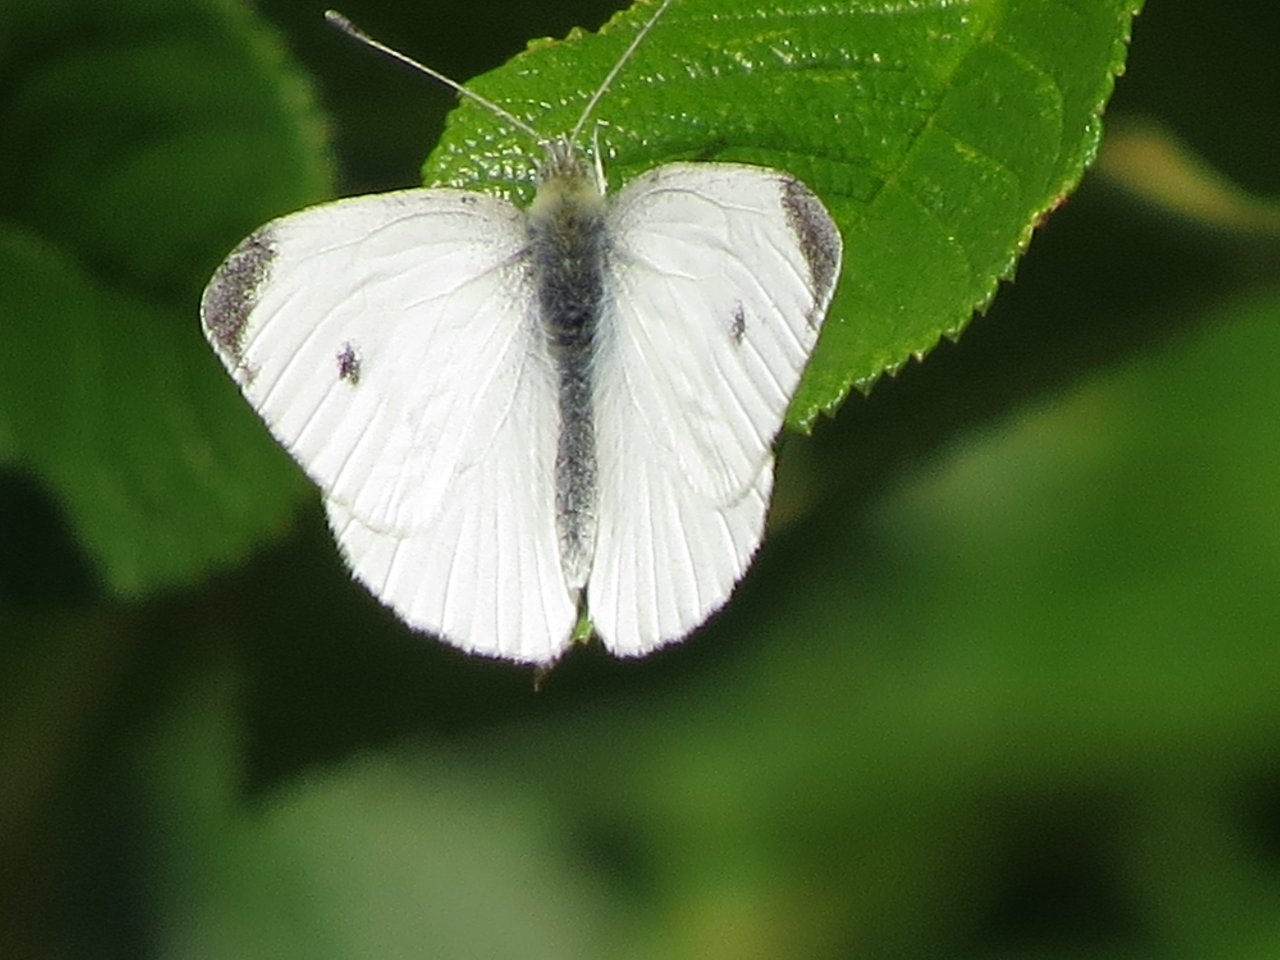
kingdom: Animalia
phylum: Arthropoda
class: Insecta
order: Lepidoptera
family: Pieridae
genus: Pieris
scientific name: Pieris rapae
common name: Cabbage White
